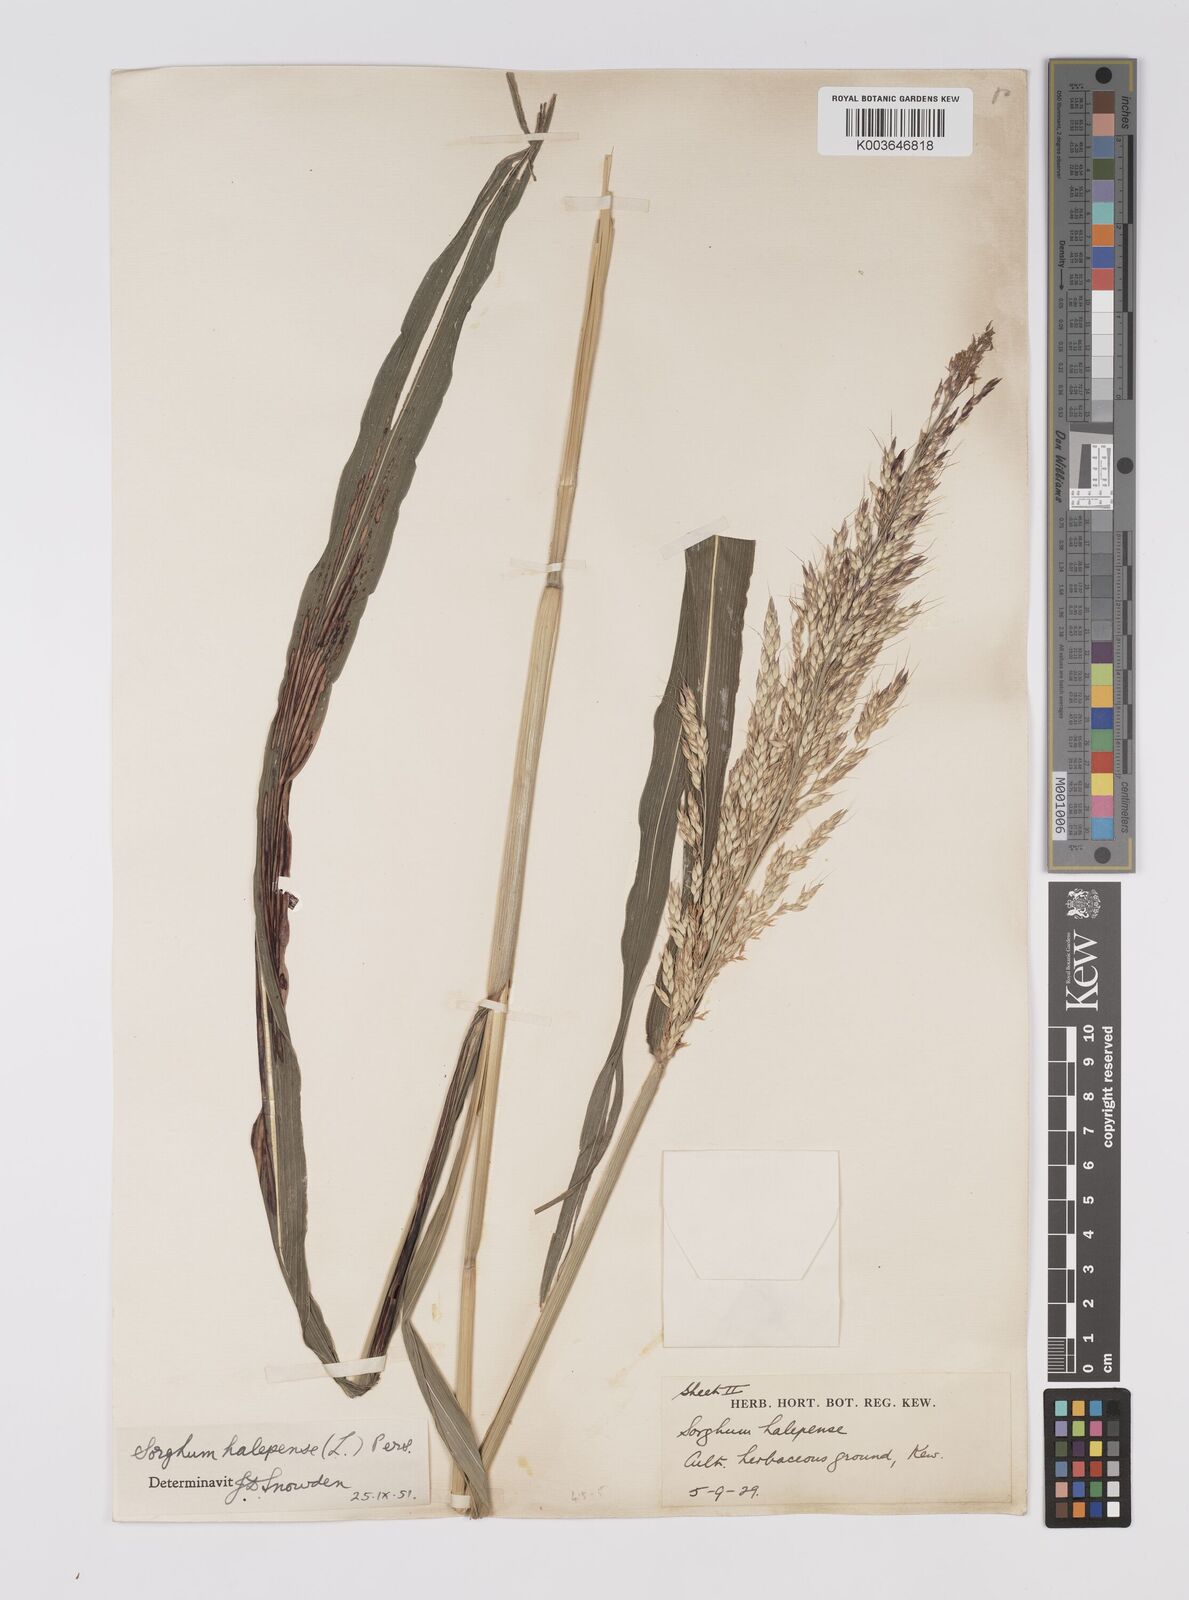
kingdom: Plantae
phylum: Tracheophyta
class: Liliopsida
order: Poales
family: Poaceae
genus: Sorghum
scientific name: Sorghum halepense
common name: Johnson-grass
